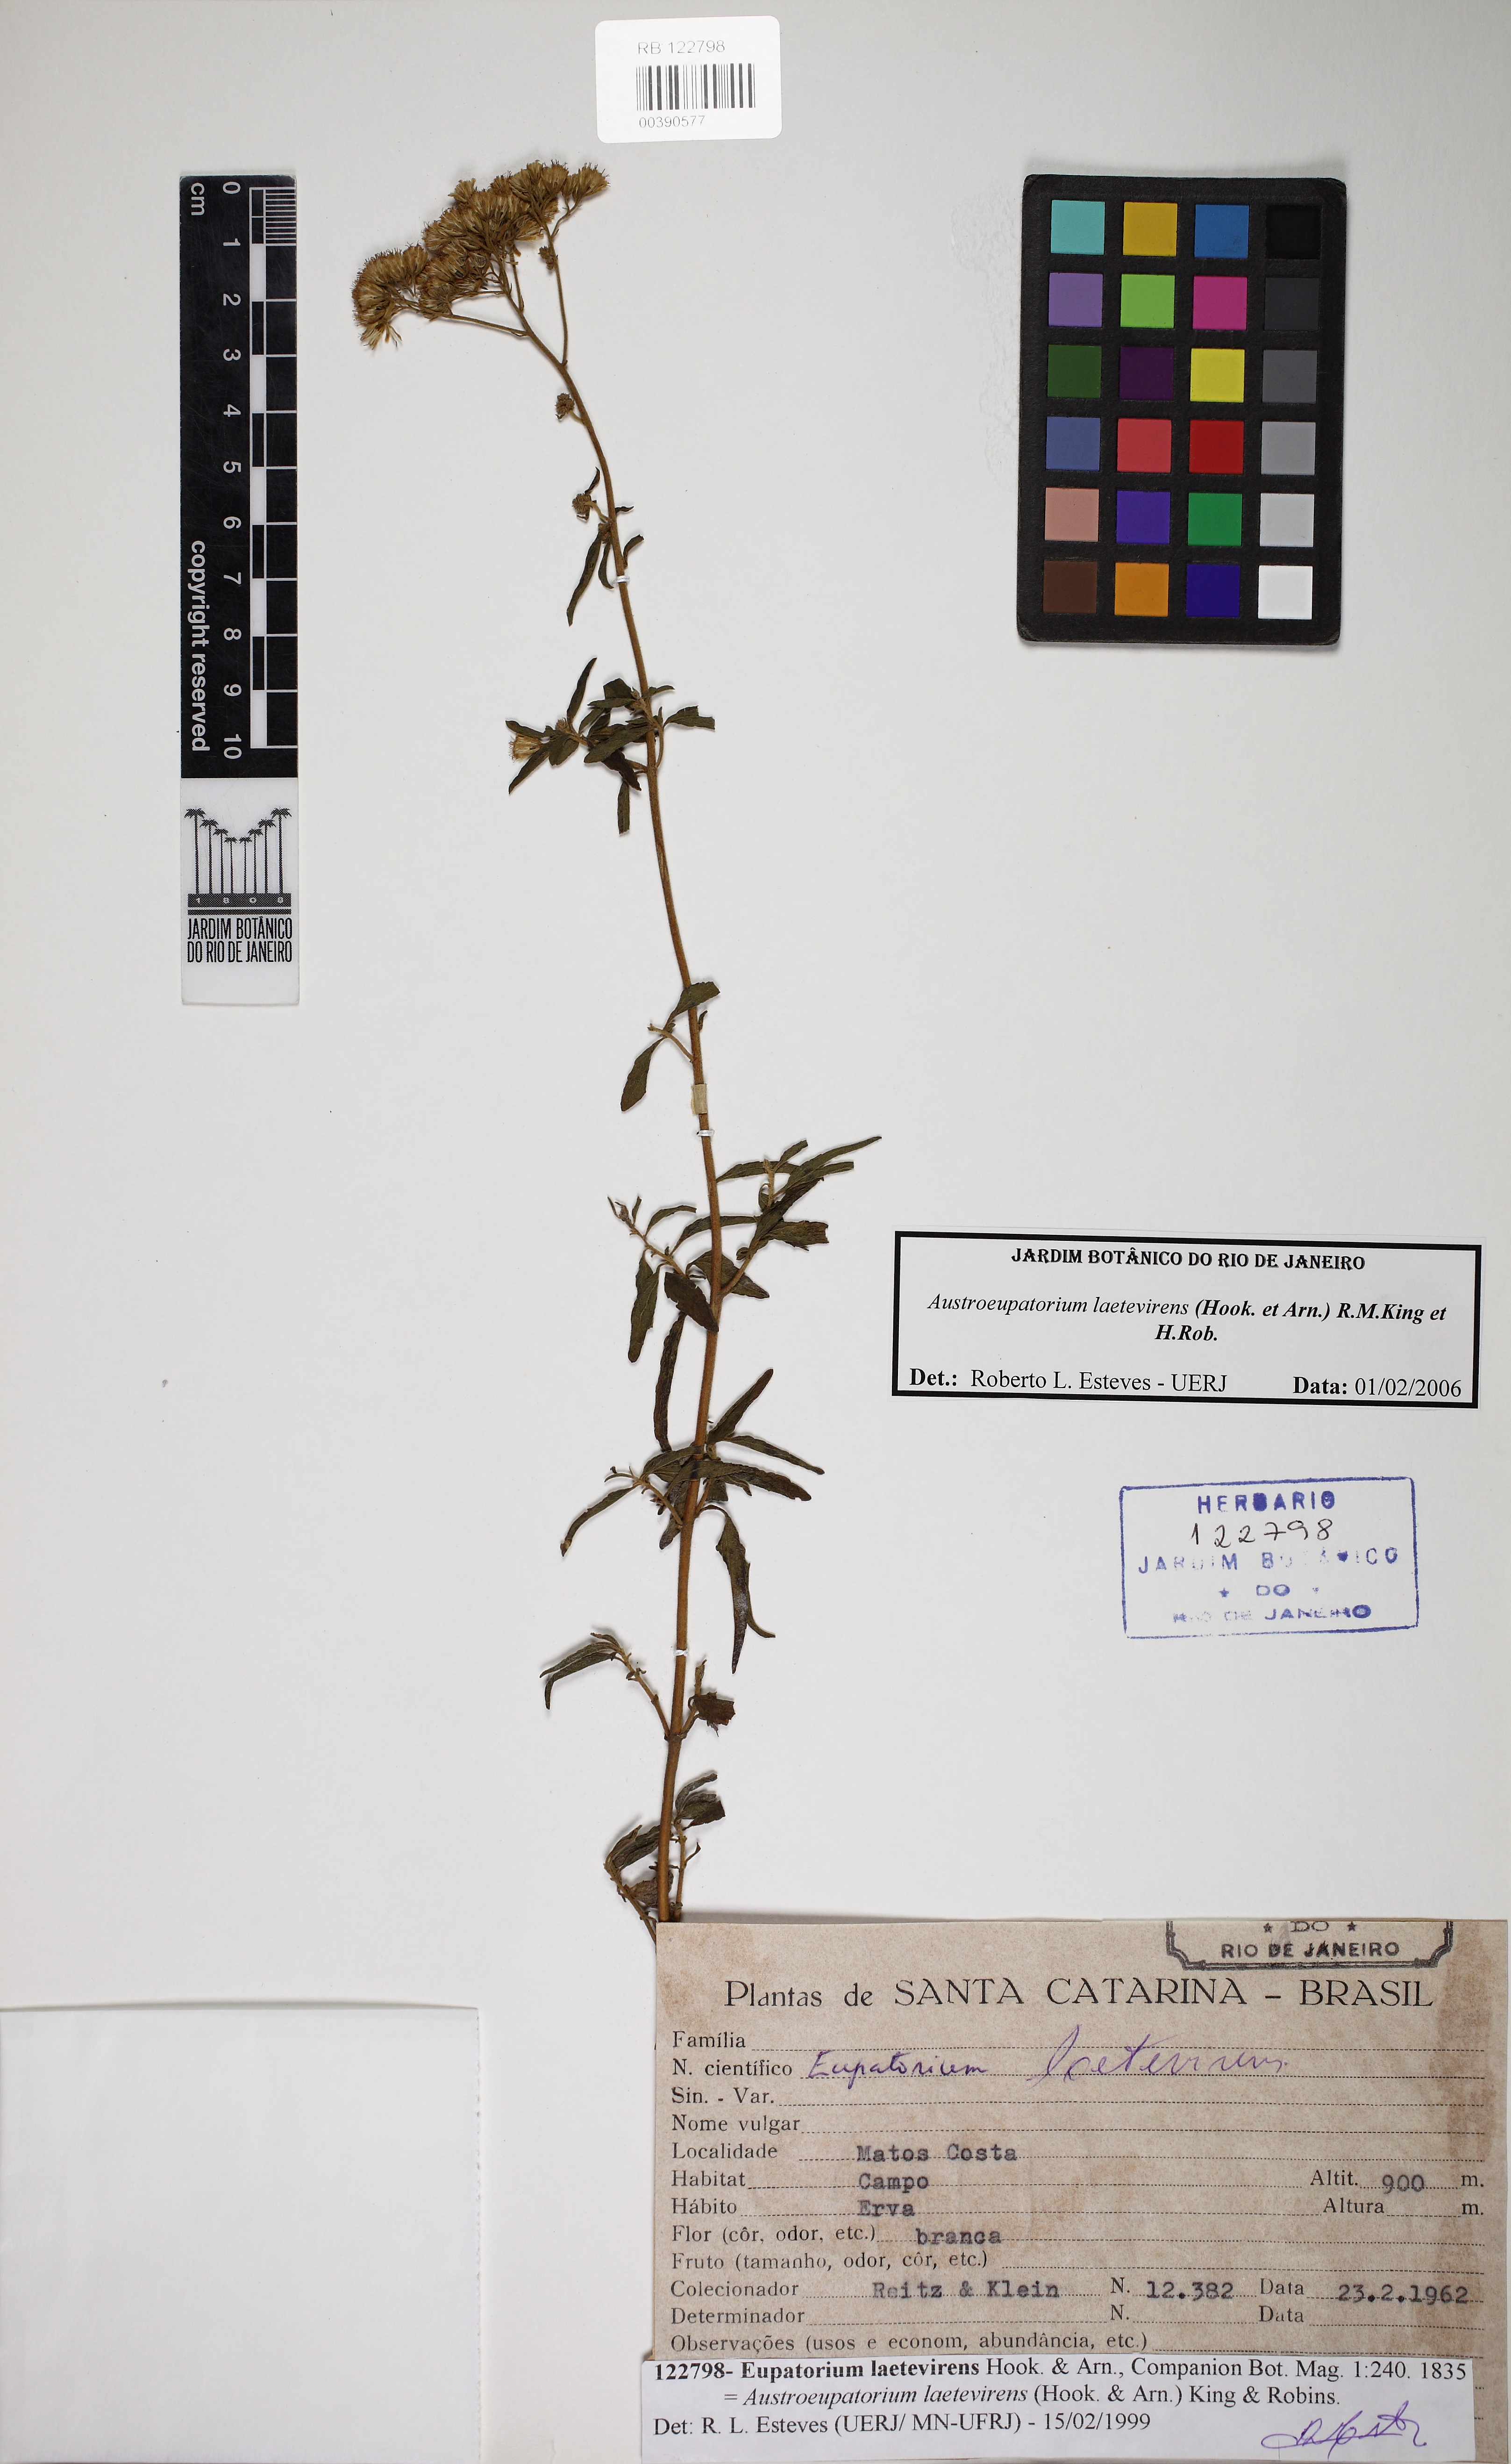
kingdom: Plantae
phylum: Tracheophyta
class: Magnoliopsida
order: Asterales
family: Asteraceae
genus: Austroeupatorium
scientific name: Austroeupatorium laetevirens
